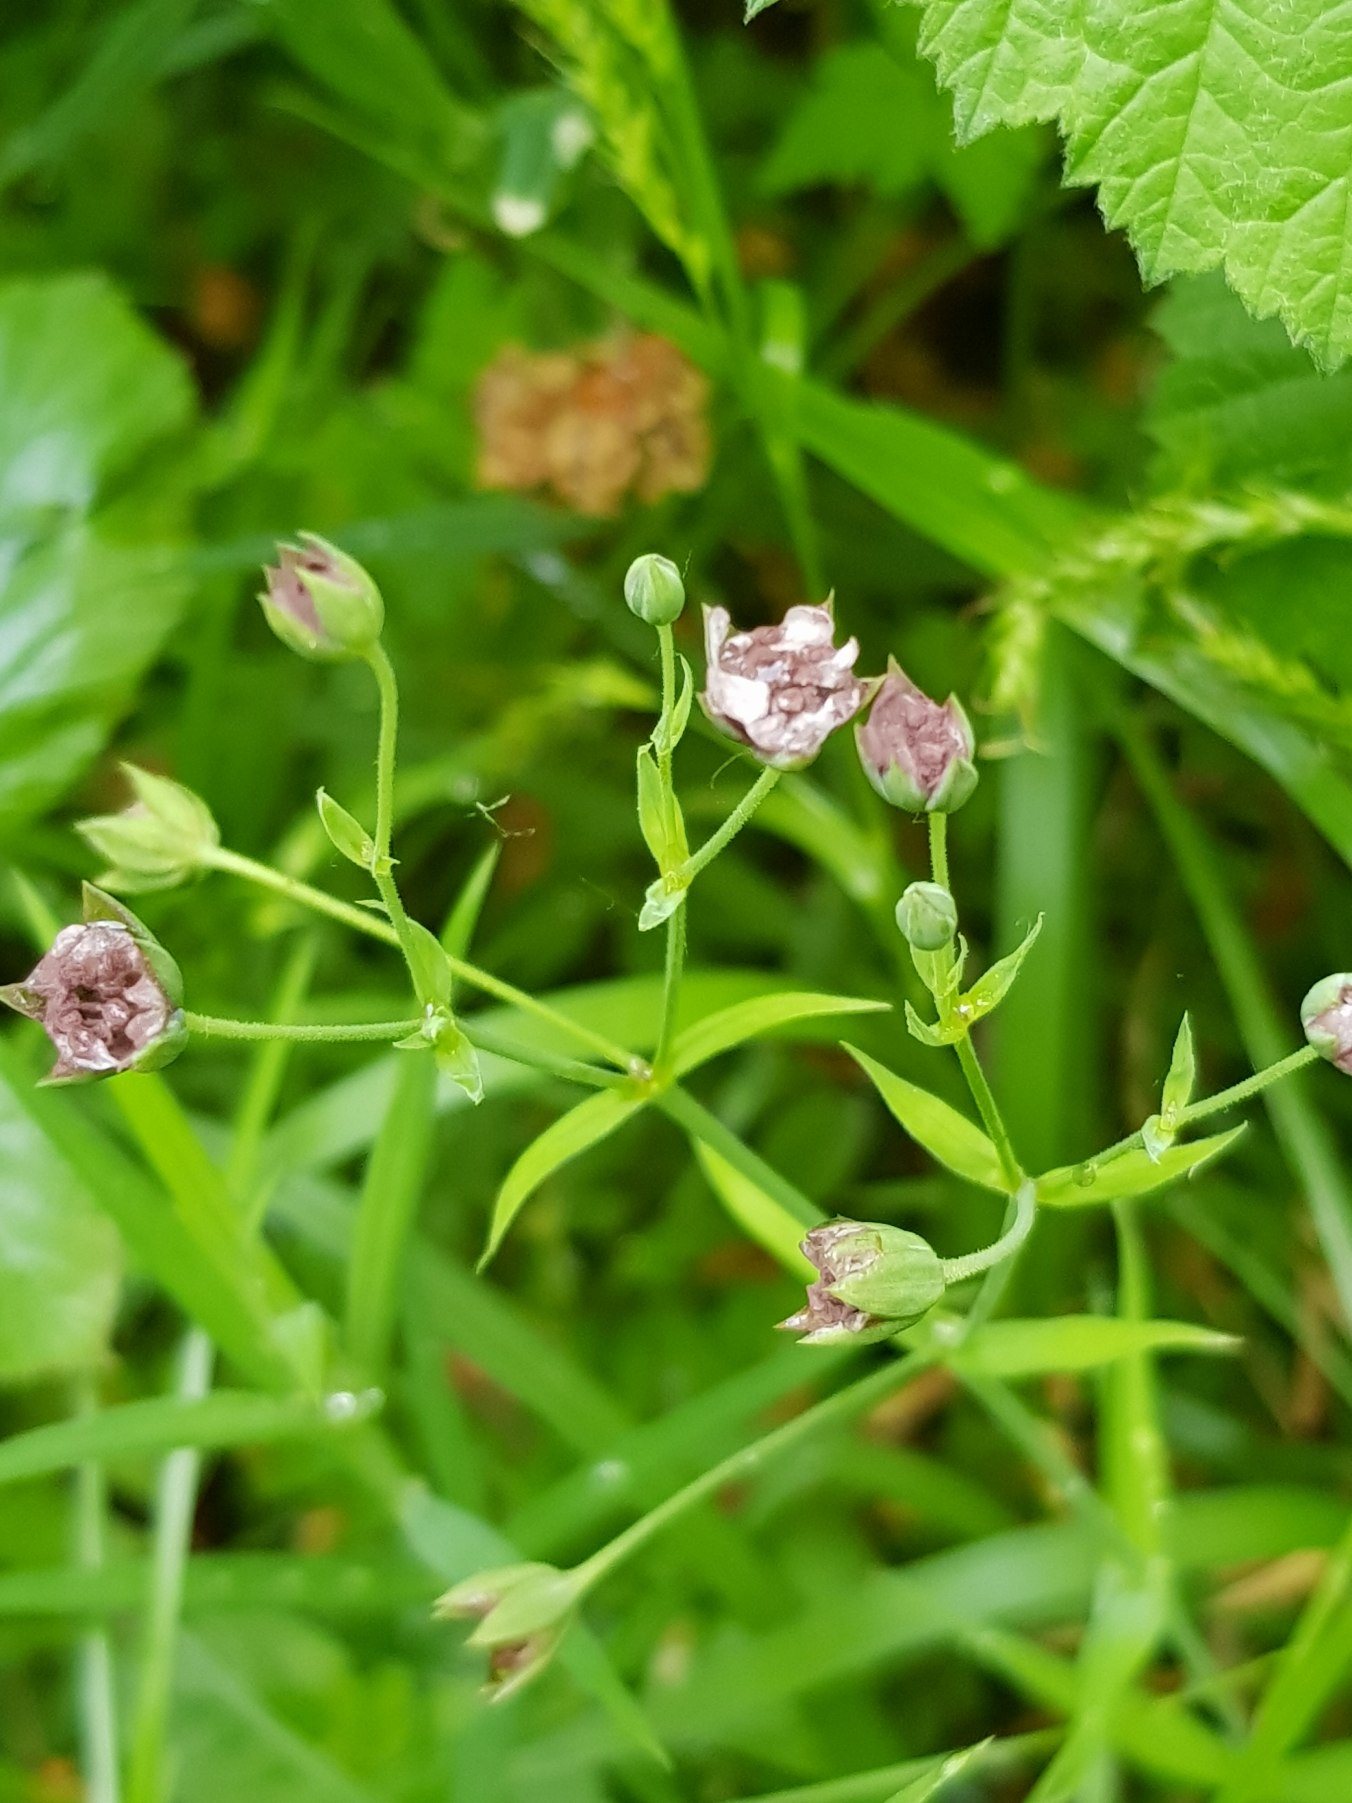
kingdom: Plantae
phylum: Tracheophyta
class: Magnoliopsida
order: Caryophyllales
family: Caryophyllaceae
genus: Rabelera
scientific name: Rabelera holostea
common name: Stor fladstjerne
